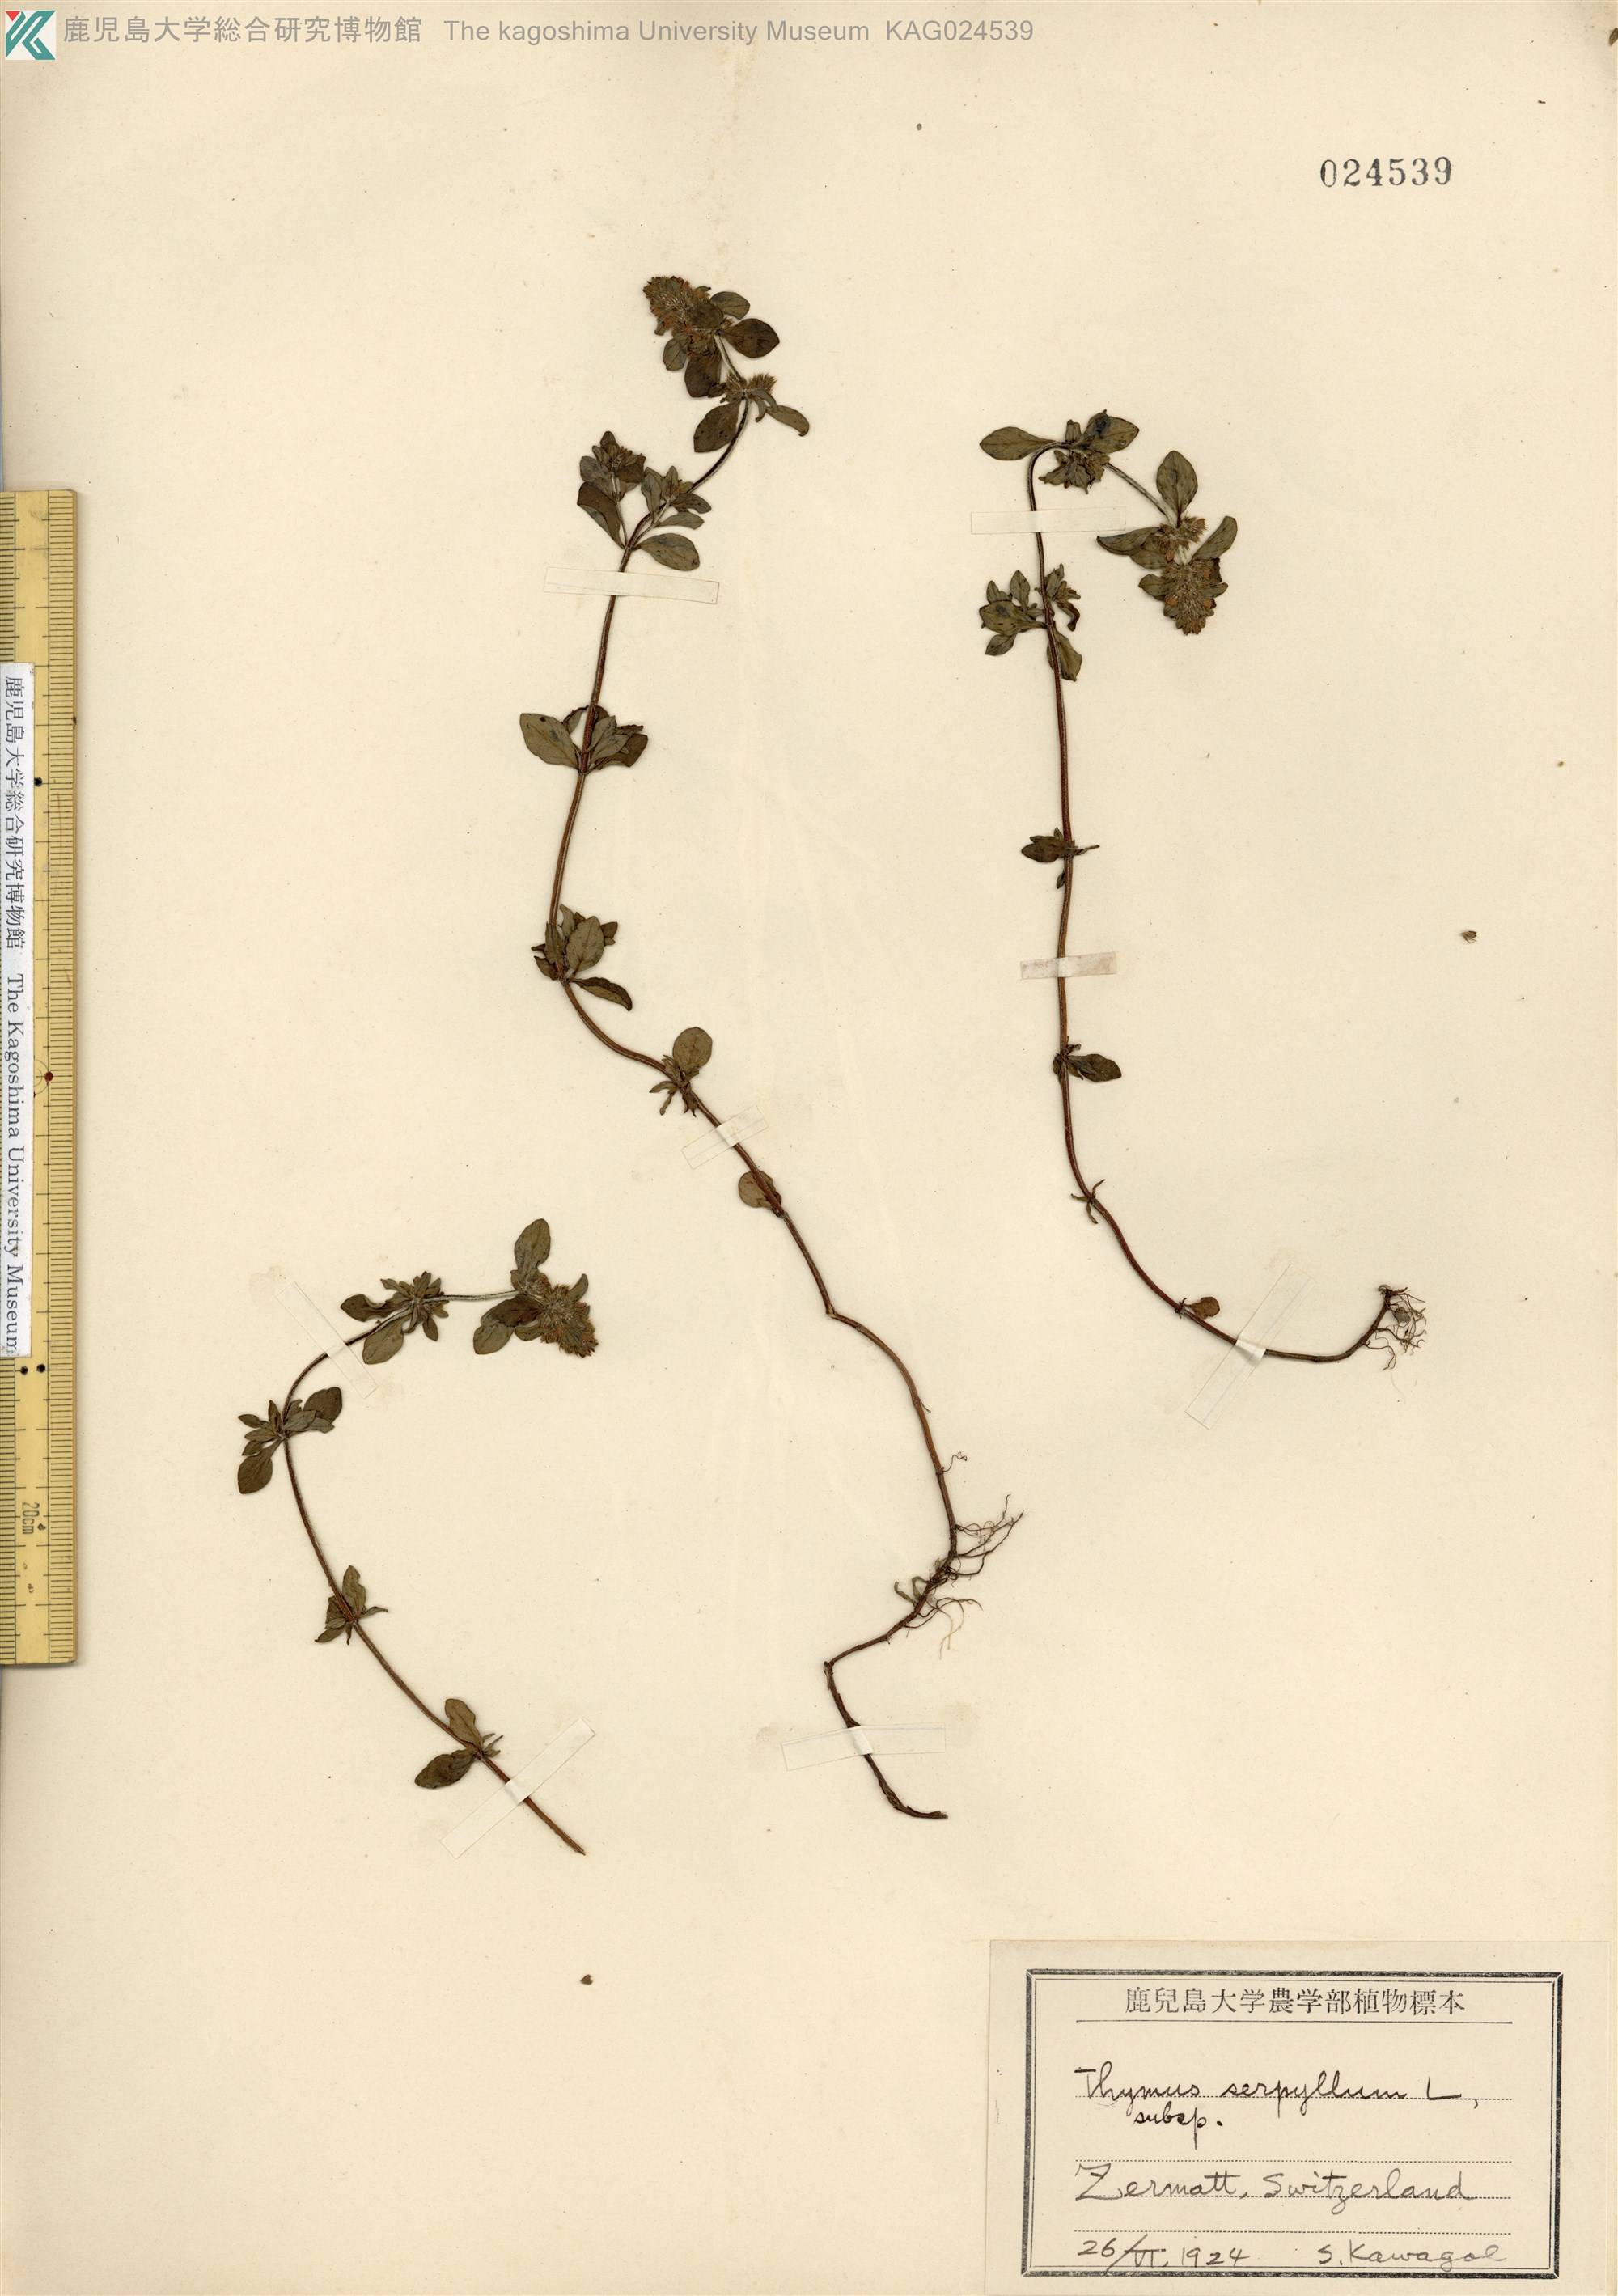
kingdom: Plantae
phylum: Tracheophyta
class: Magnoliopsida
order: Lamiales
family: Lamiaceae
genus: Thymus
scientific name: Thymus quinquecostatus
